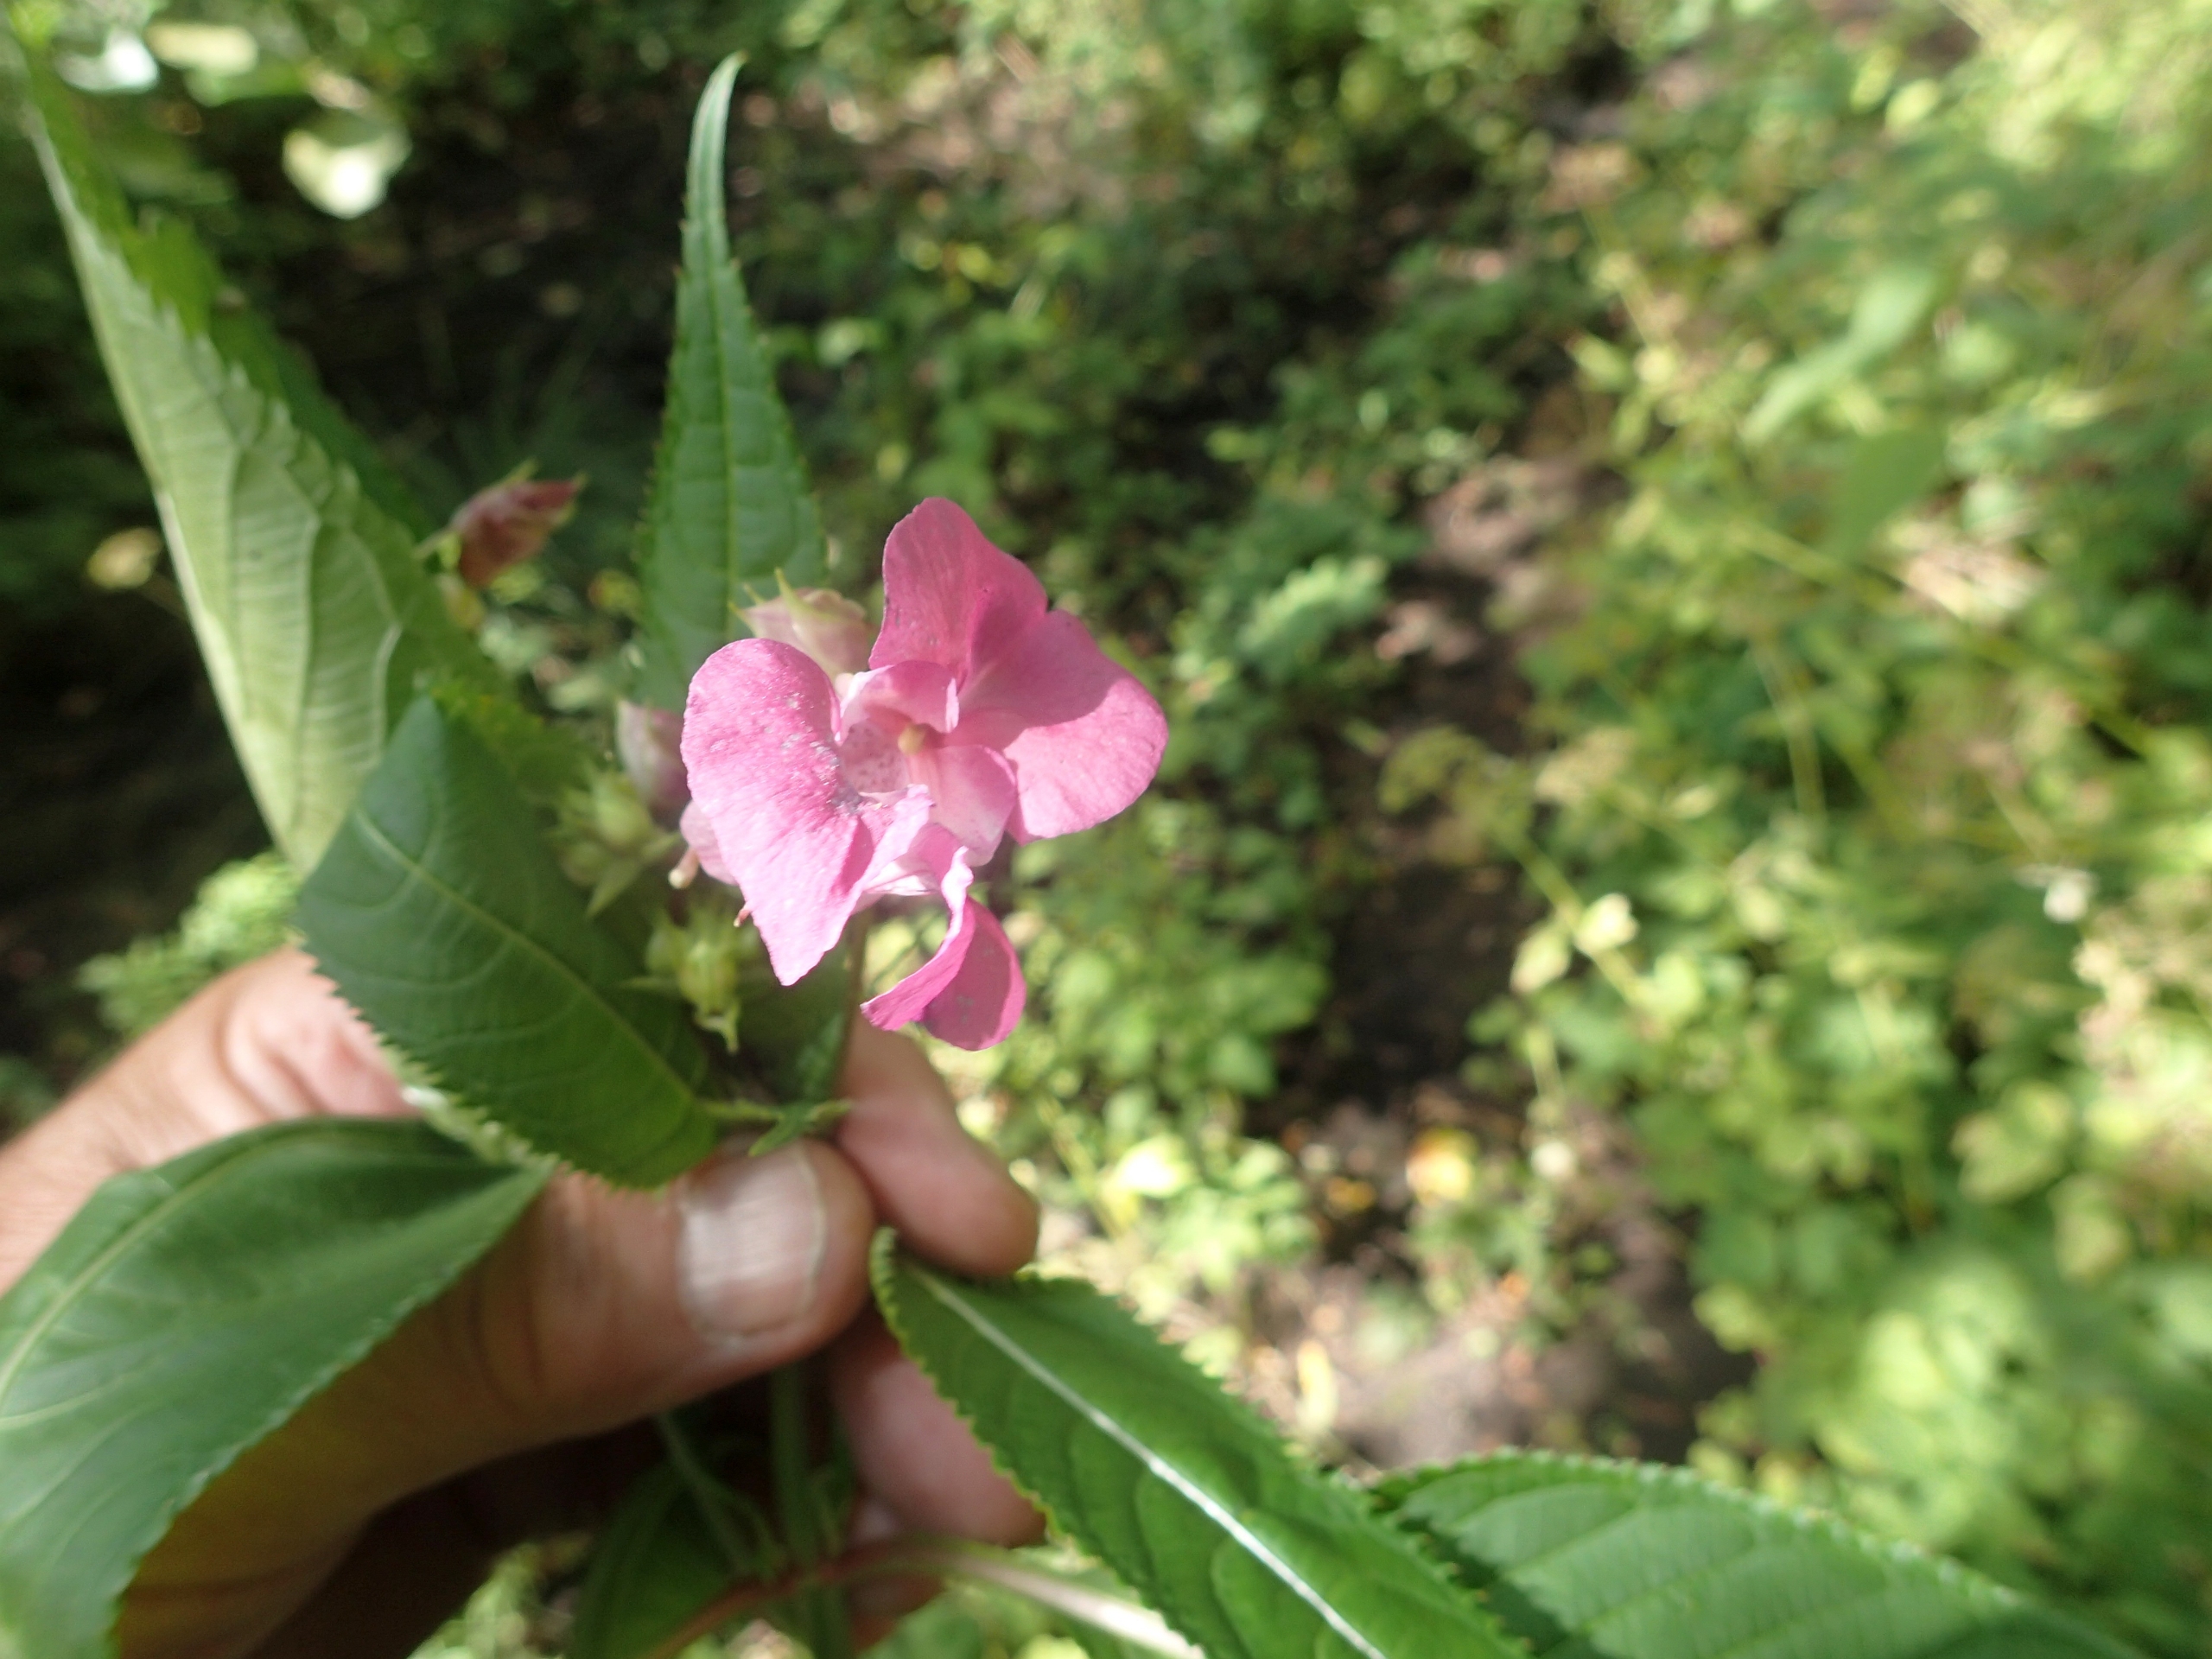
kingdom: Plantae
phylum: Tracheophyta
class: Magnoliopsida
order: Ericales
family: Balsaminaceae
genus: Impatiens
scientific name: Impatiens glandulifera
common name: Kæmpe-balsamin
